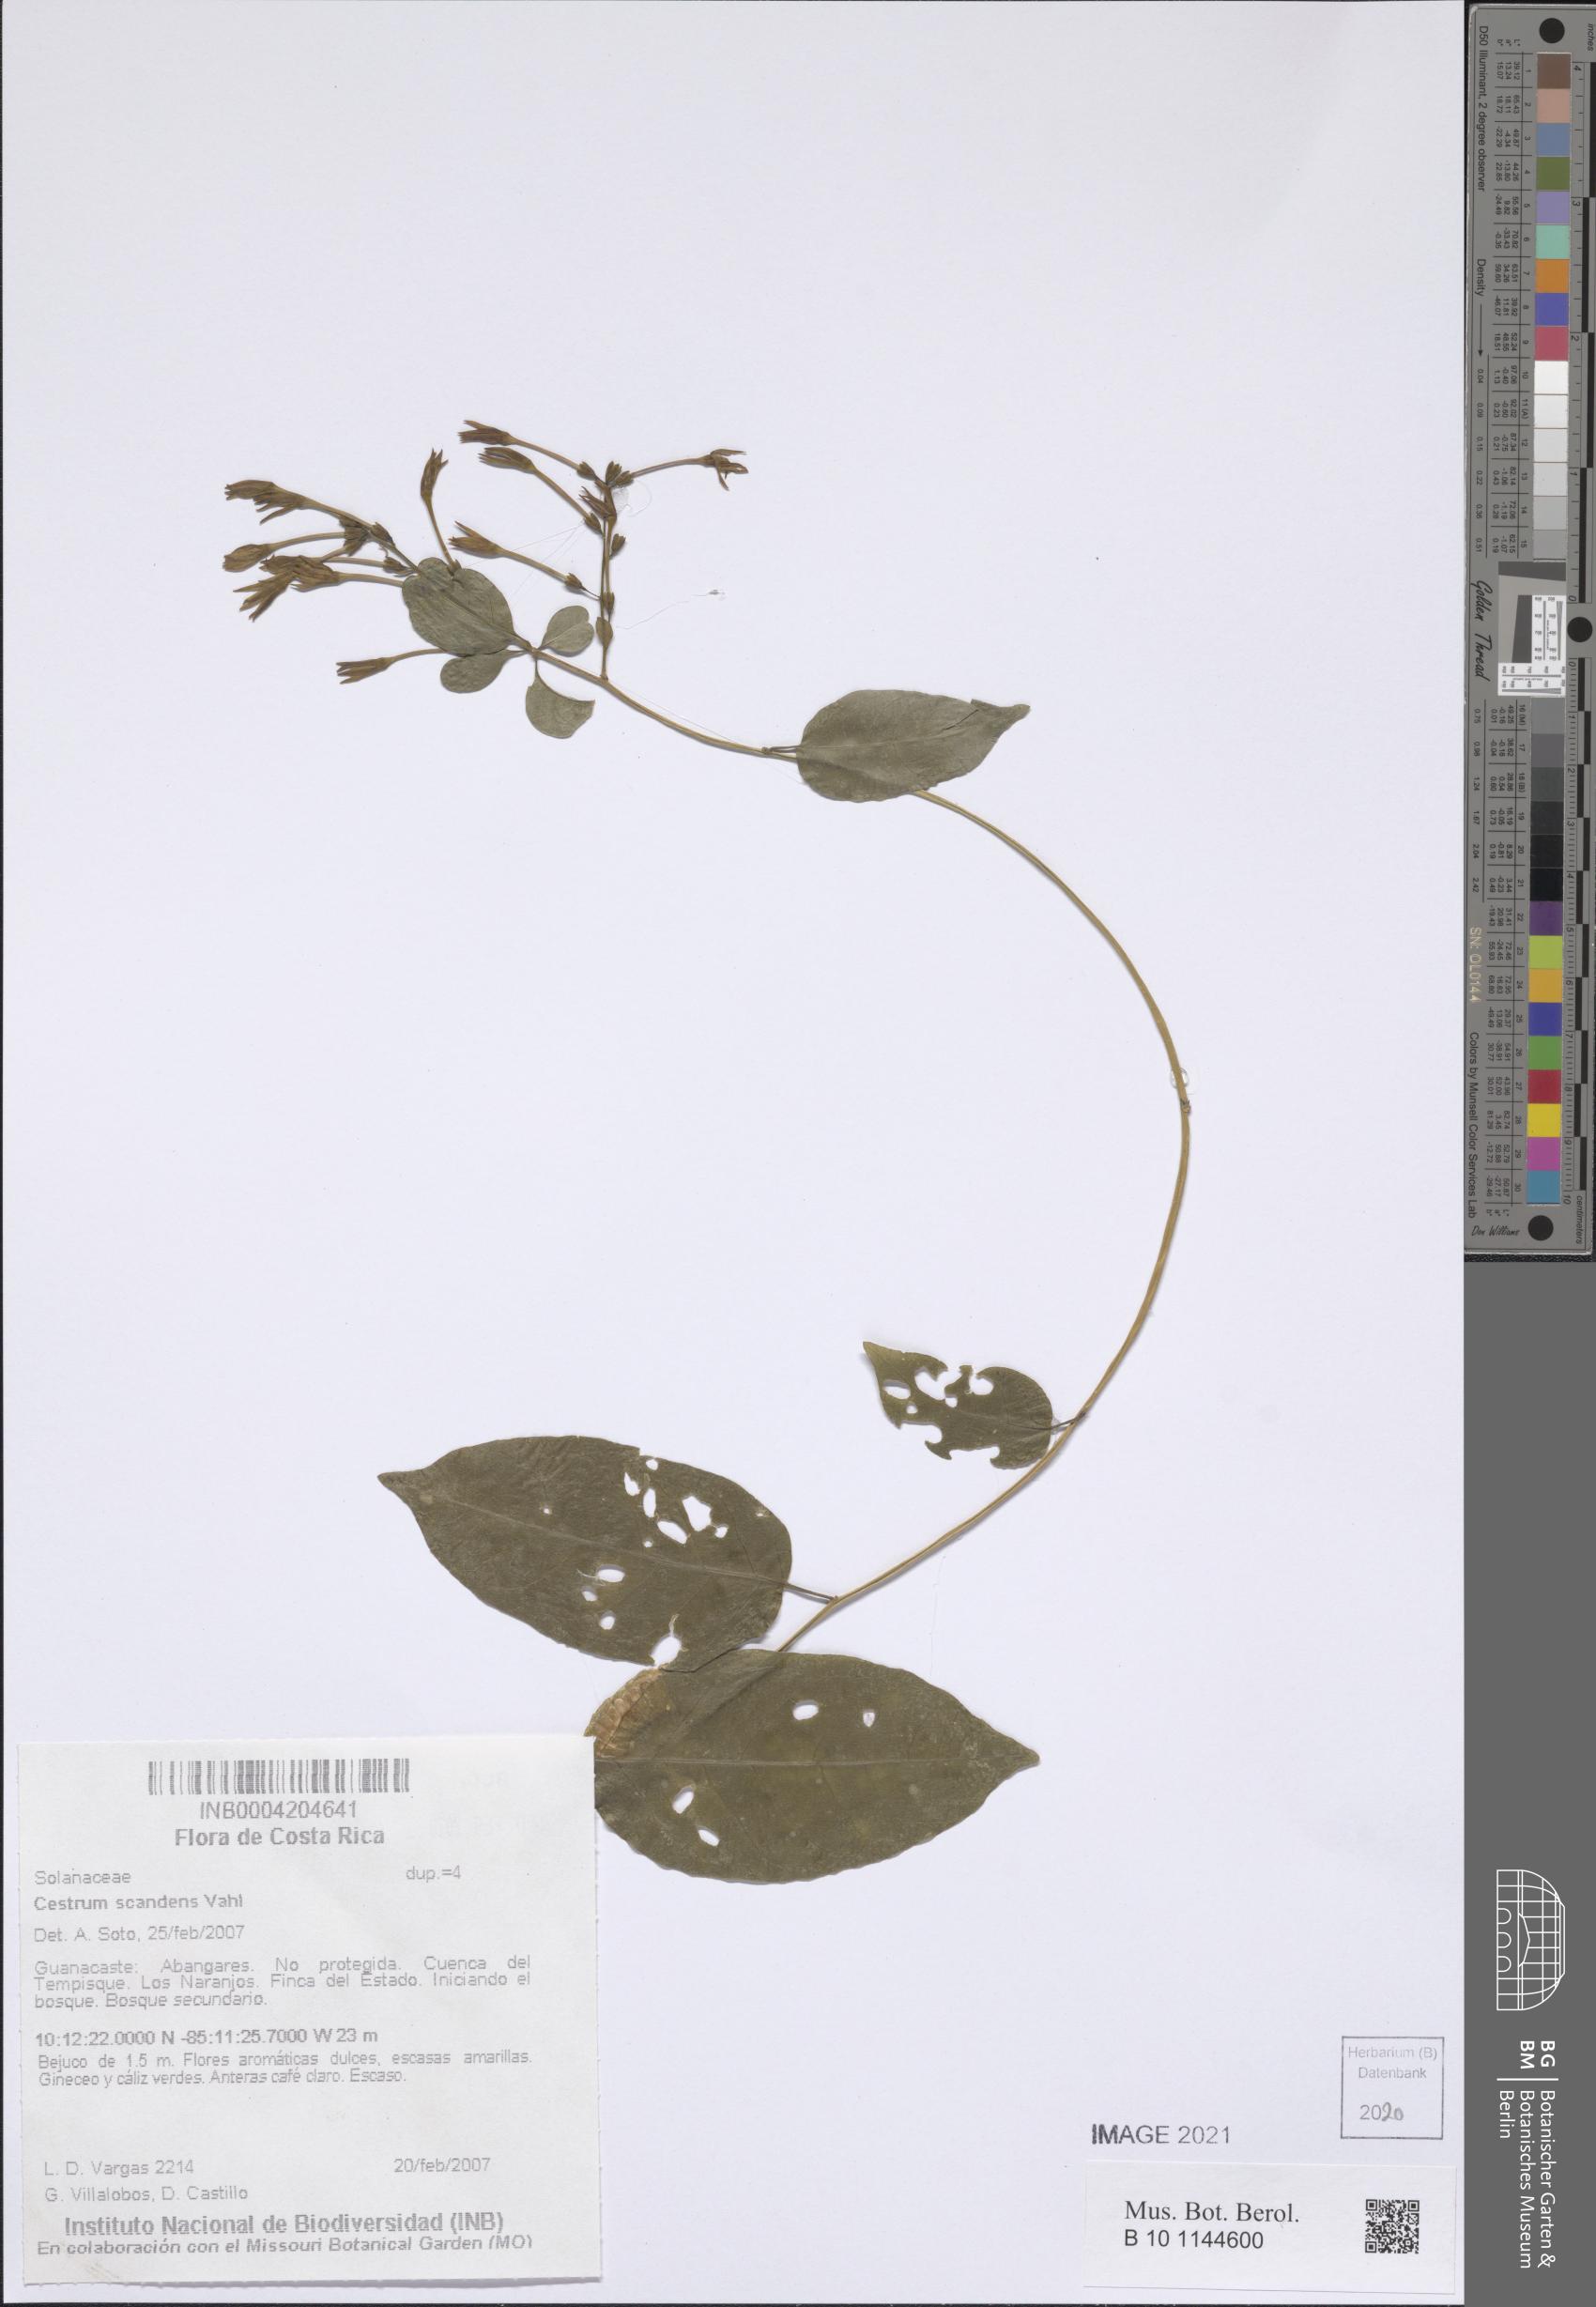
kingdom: Plantae
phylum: Tracheophyta
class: Magnoliopsida
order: Solanales
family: Solanaceae
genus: Cestrum
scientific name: Cestrum scandens
